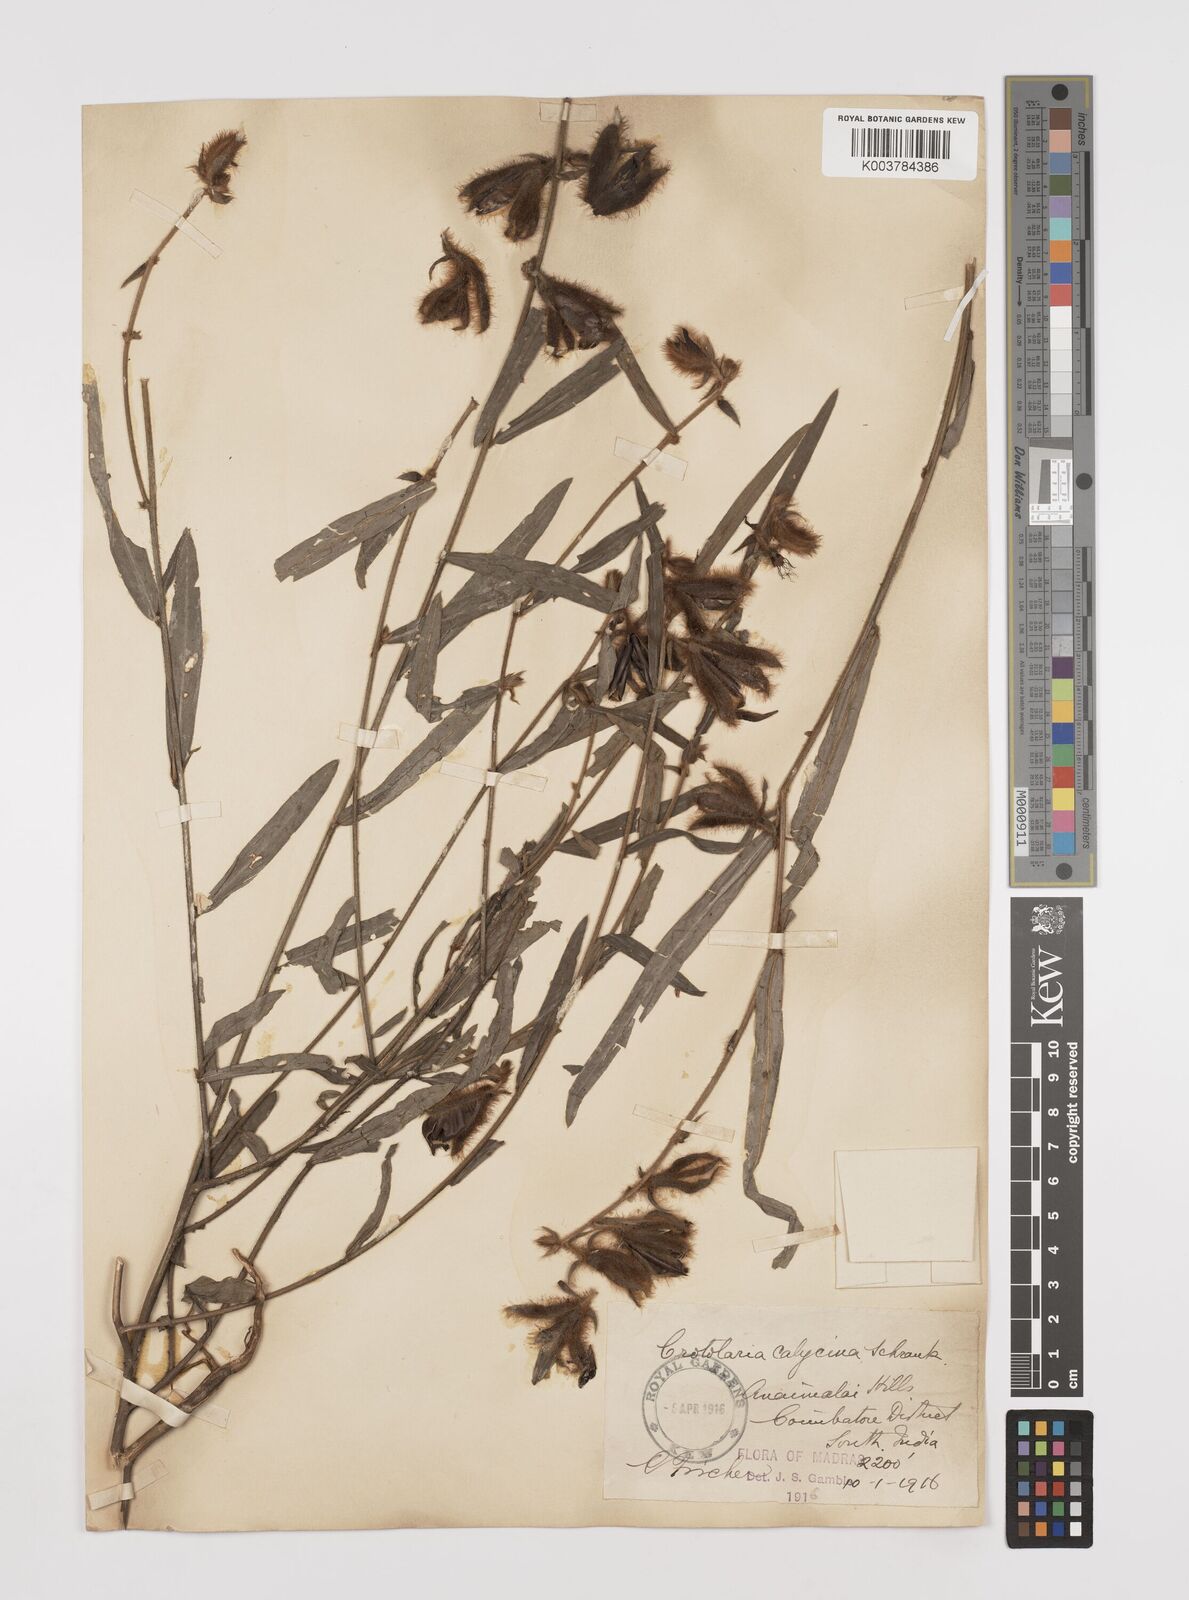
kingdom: Plantae
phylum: Tracheophyta
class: Magnoliopsida
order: Fabales
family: Fabaceae
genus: Crotalaria
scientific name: Crotalaria calycina
